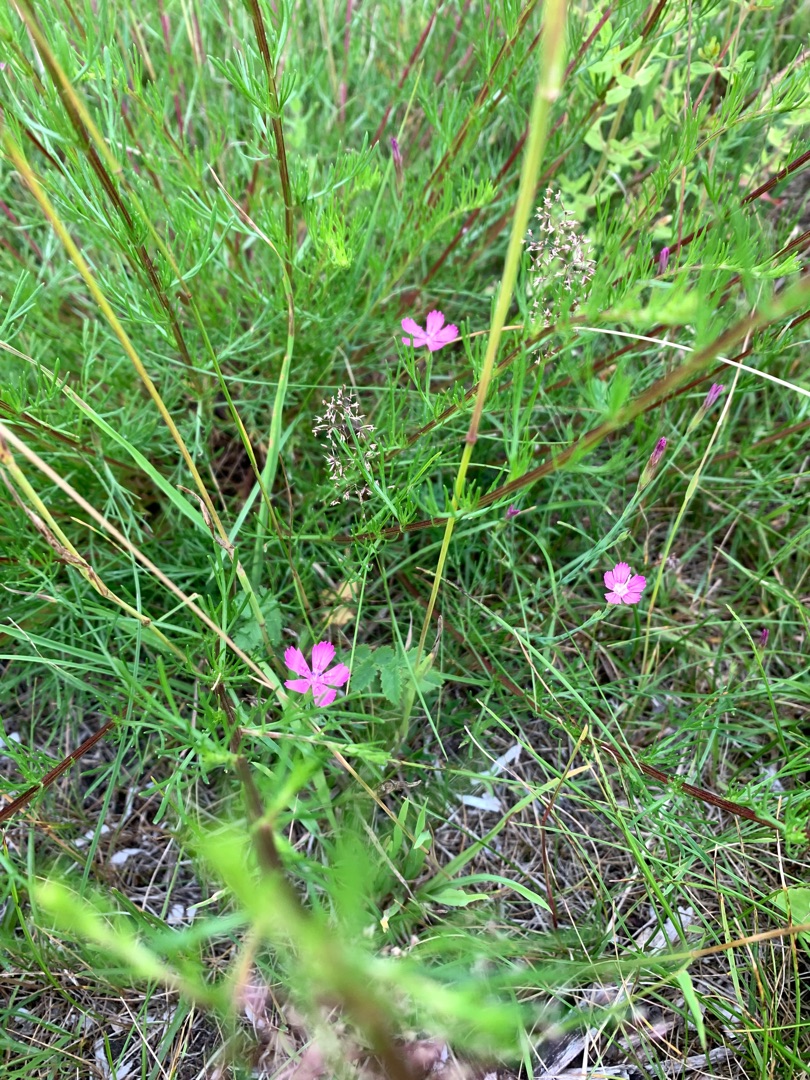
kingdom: Plantae
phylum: Tracheophyta
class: Magnoliopsida
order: Caryophyllales
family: Caryophyllaceae
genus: Dianthus
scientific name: Dianthus deltoides
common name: Bakke-nellike
